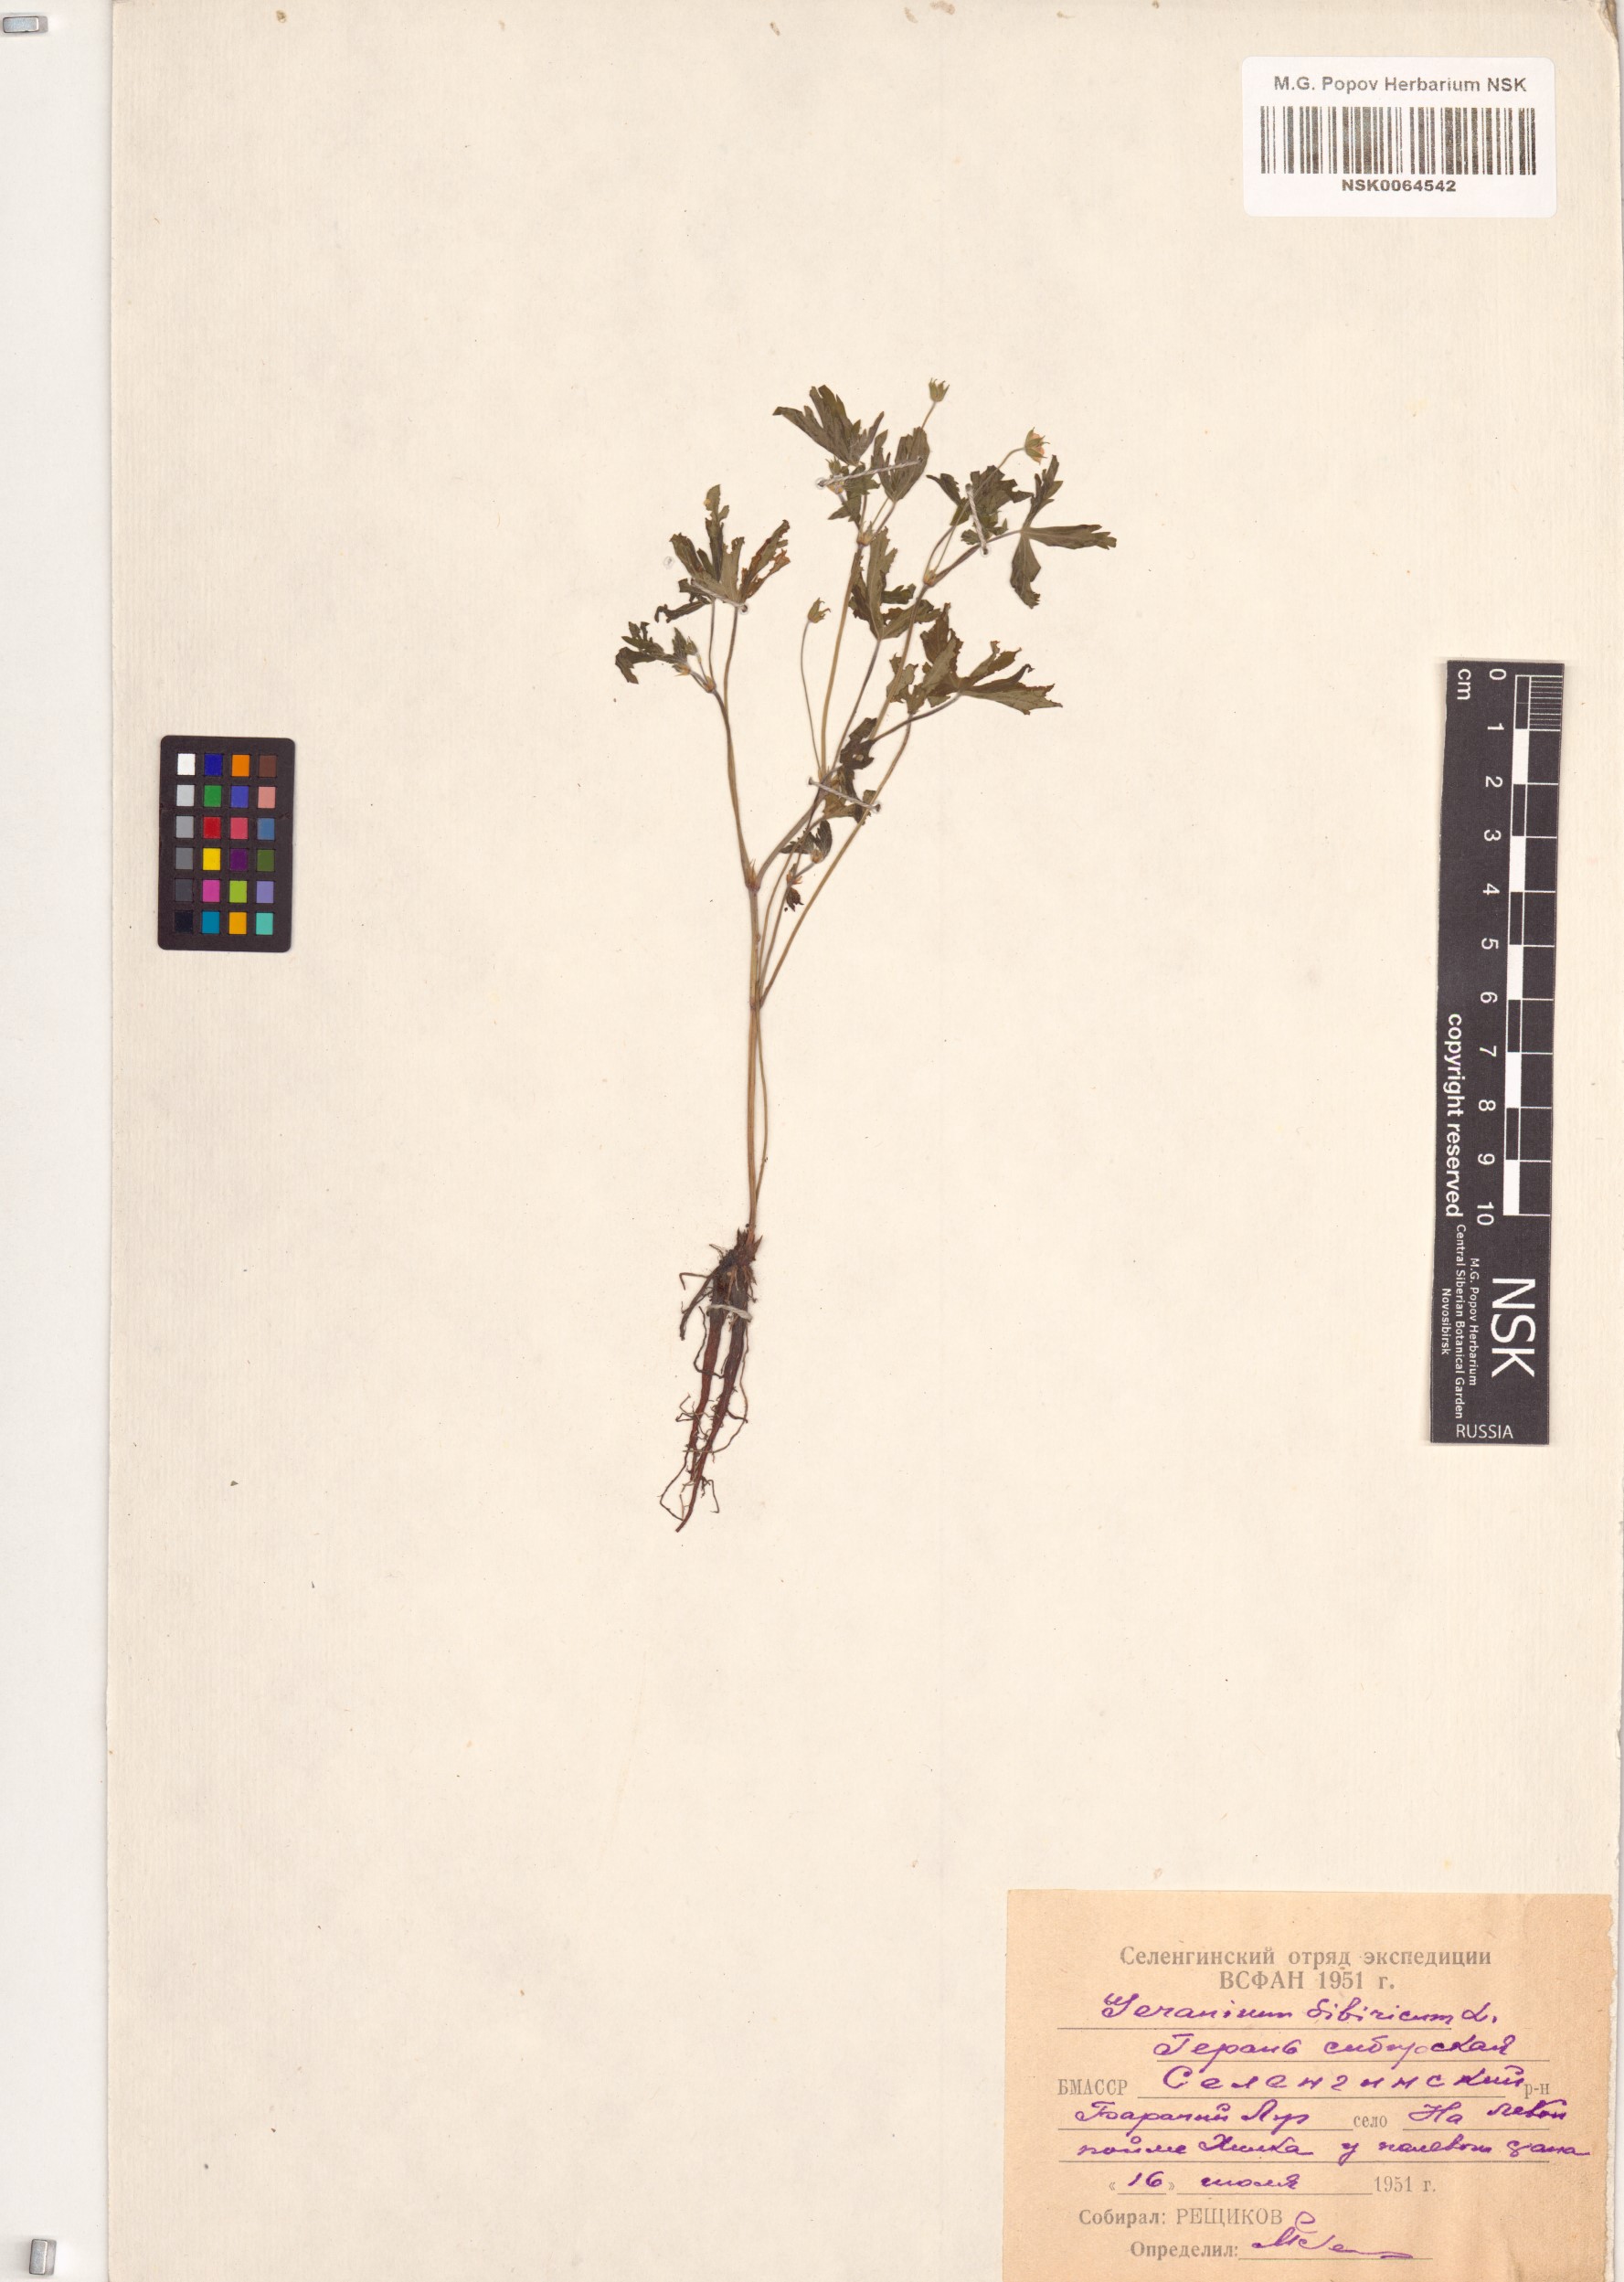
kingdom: Plantae
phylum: Tracheophyta
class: Magnoliopsida
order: Geraniales
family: Geraniaceae
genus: Geranium
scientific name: Geranium sibiricum
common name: Siberian crane's-bill
